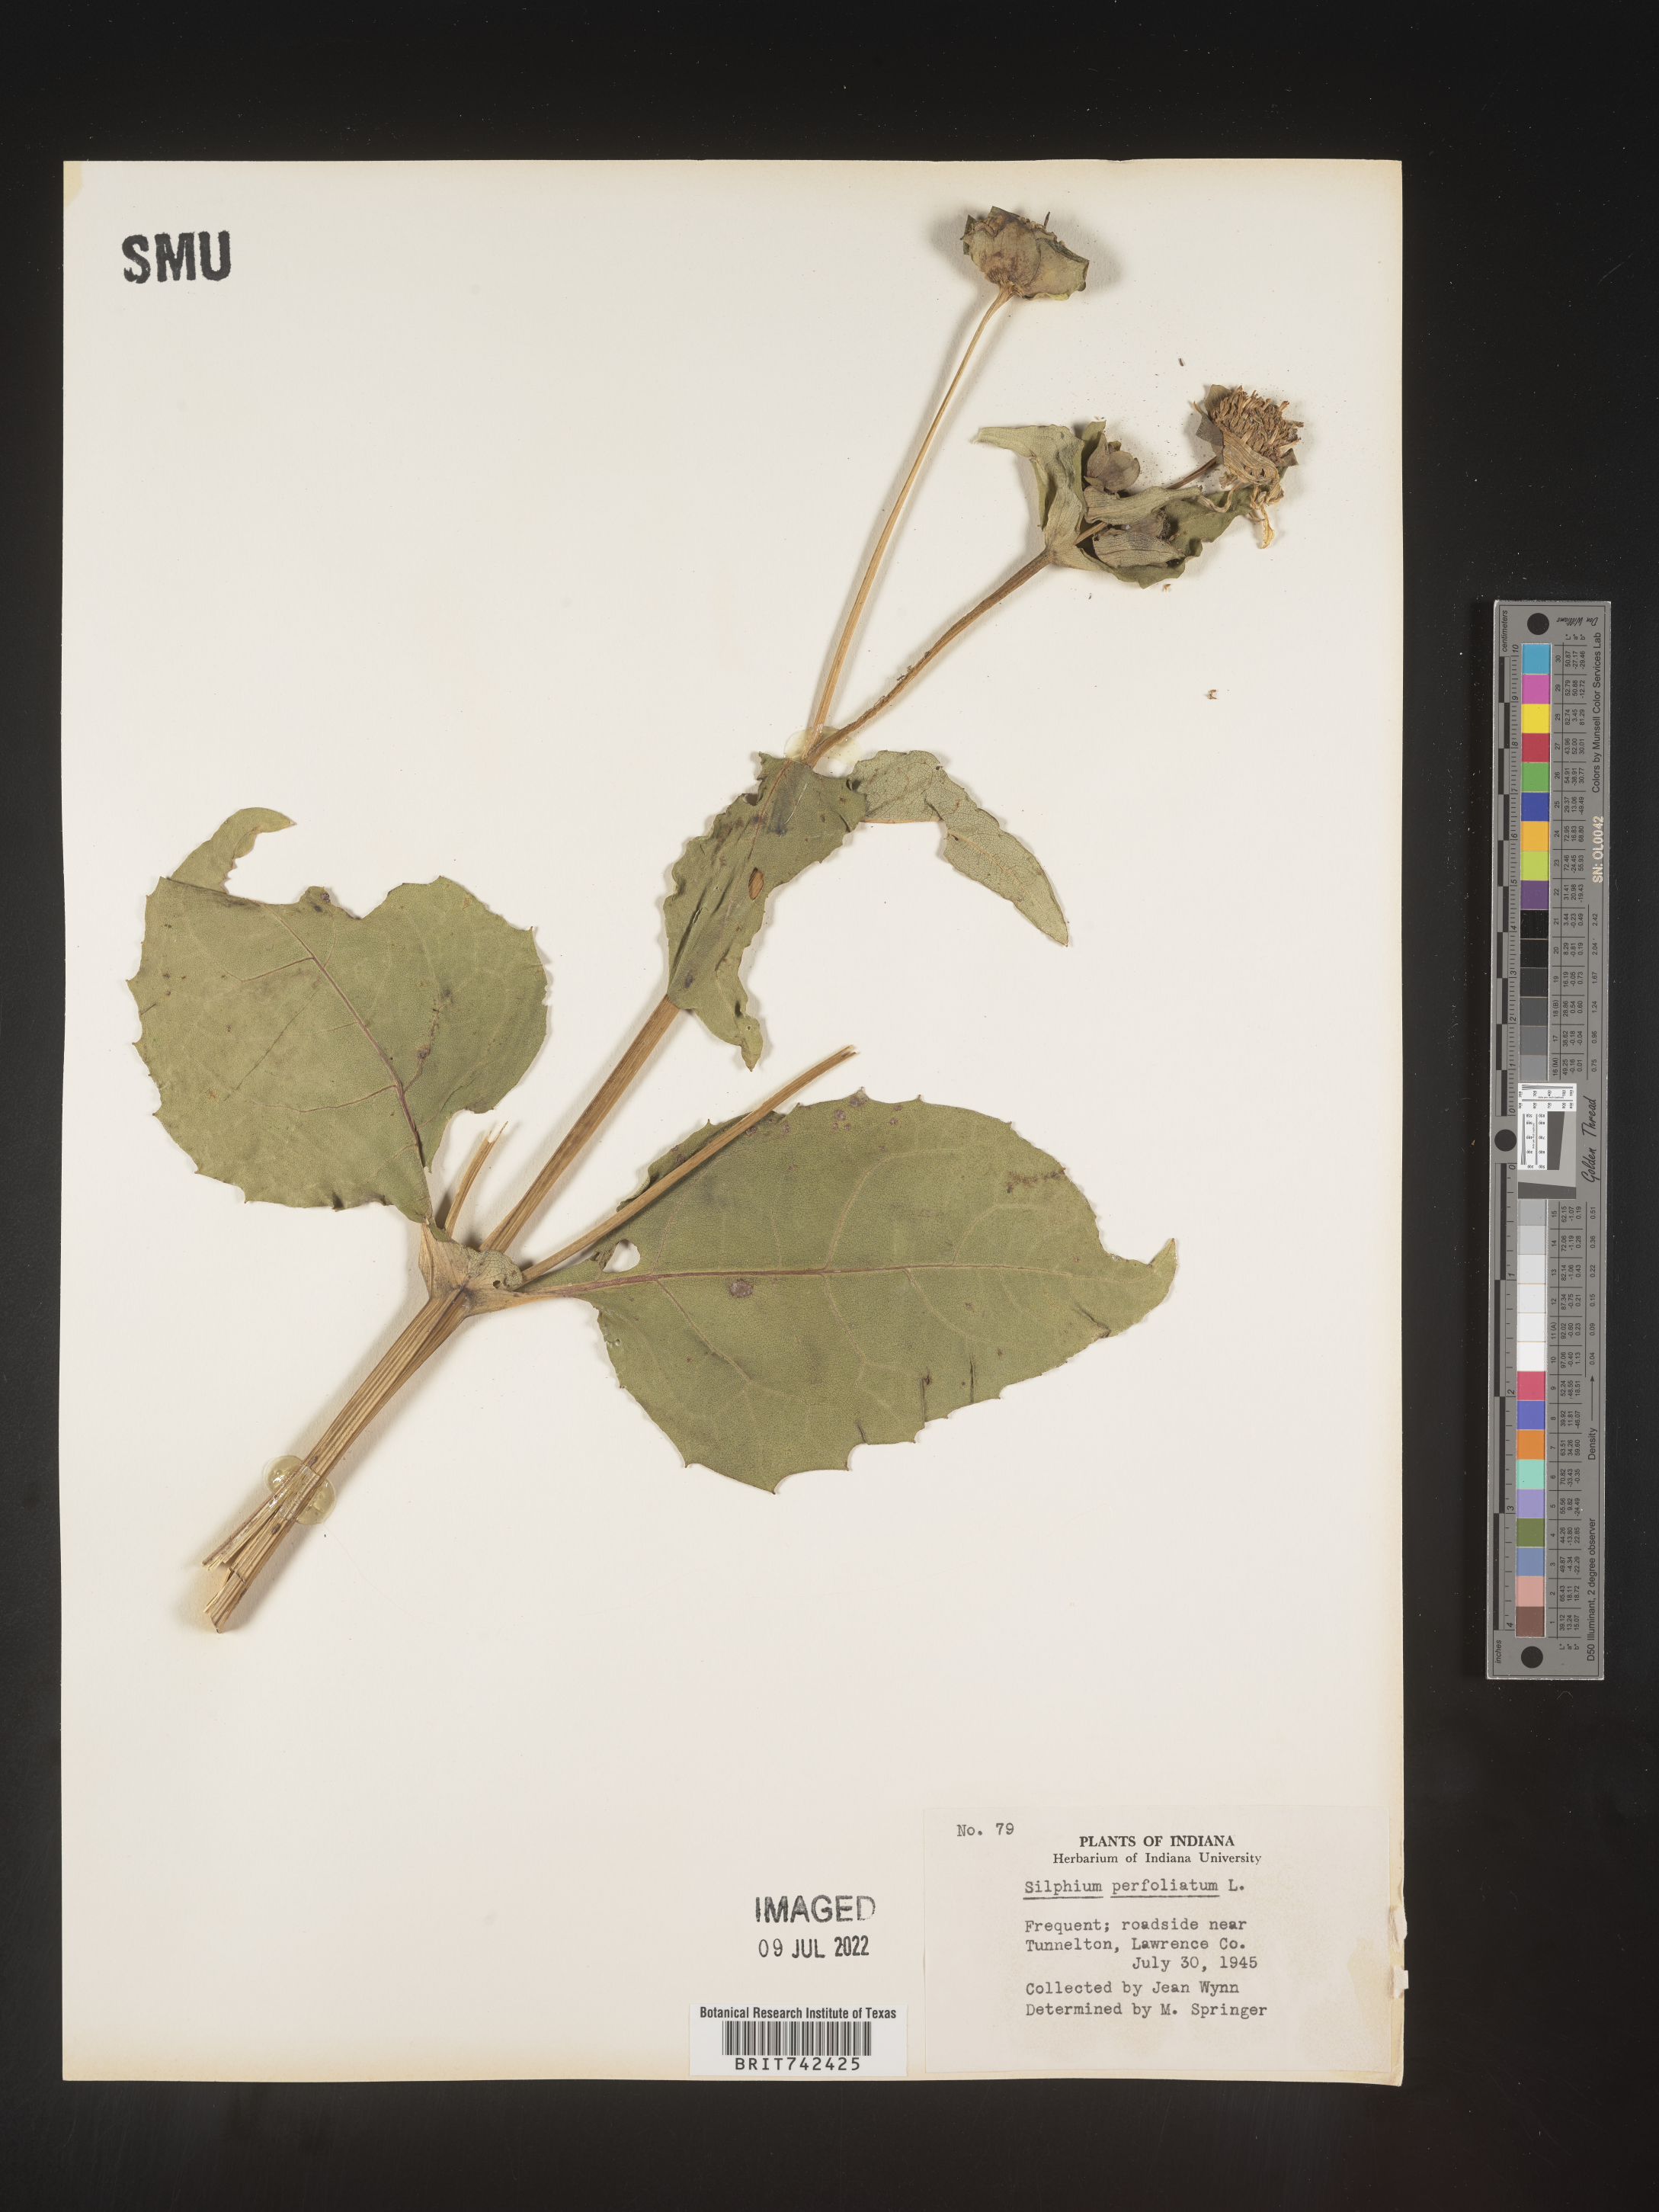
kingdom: Plantae
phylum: Tracheophyta
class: Magnoliopsida
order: Asterales
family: Asteraceae
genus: Silphium
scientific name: Silphium perfoliatum
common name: Cup-plant
